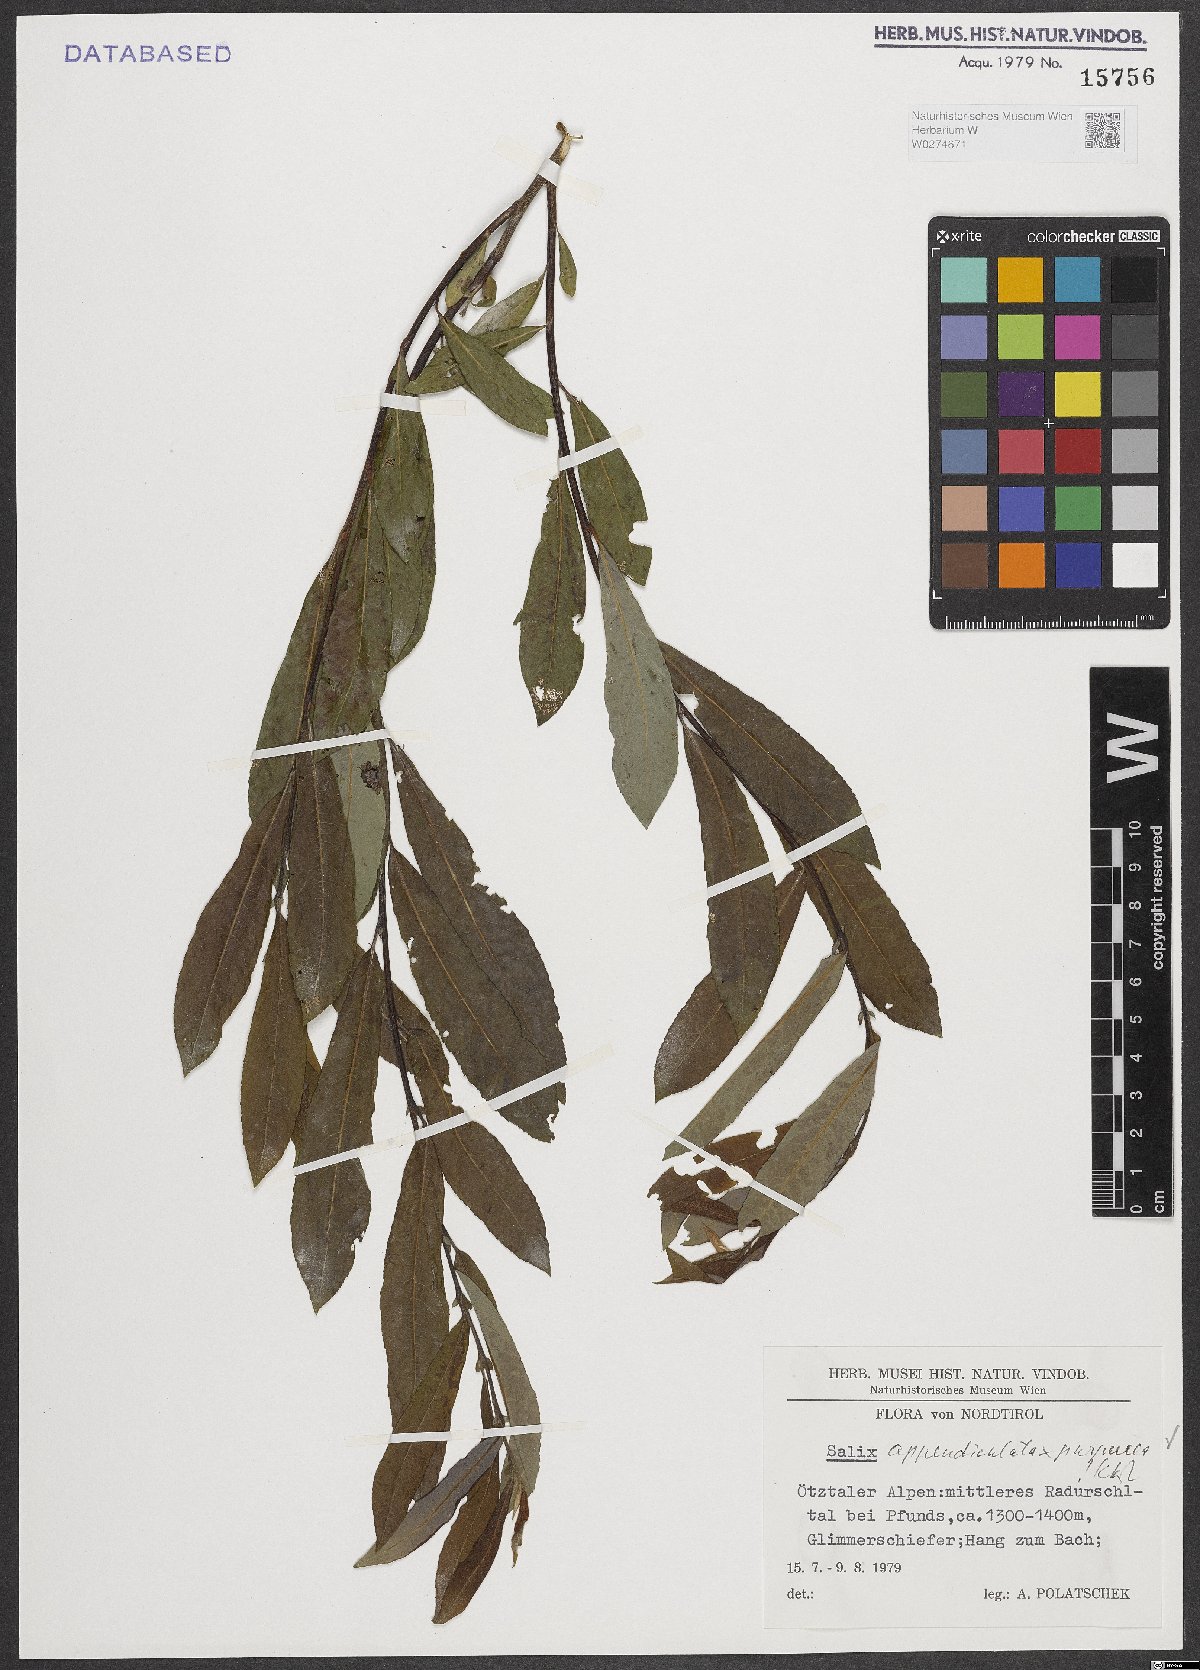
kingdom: Plantae
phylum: Tracheophyta
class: Magnoliopsida
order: Malpighiales
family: Salicaceae
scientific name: Salicaceae
